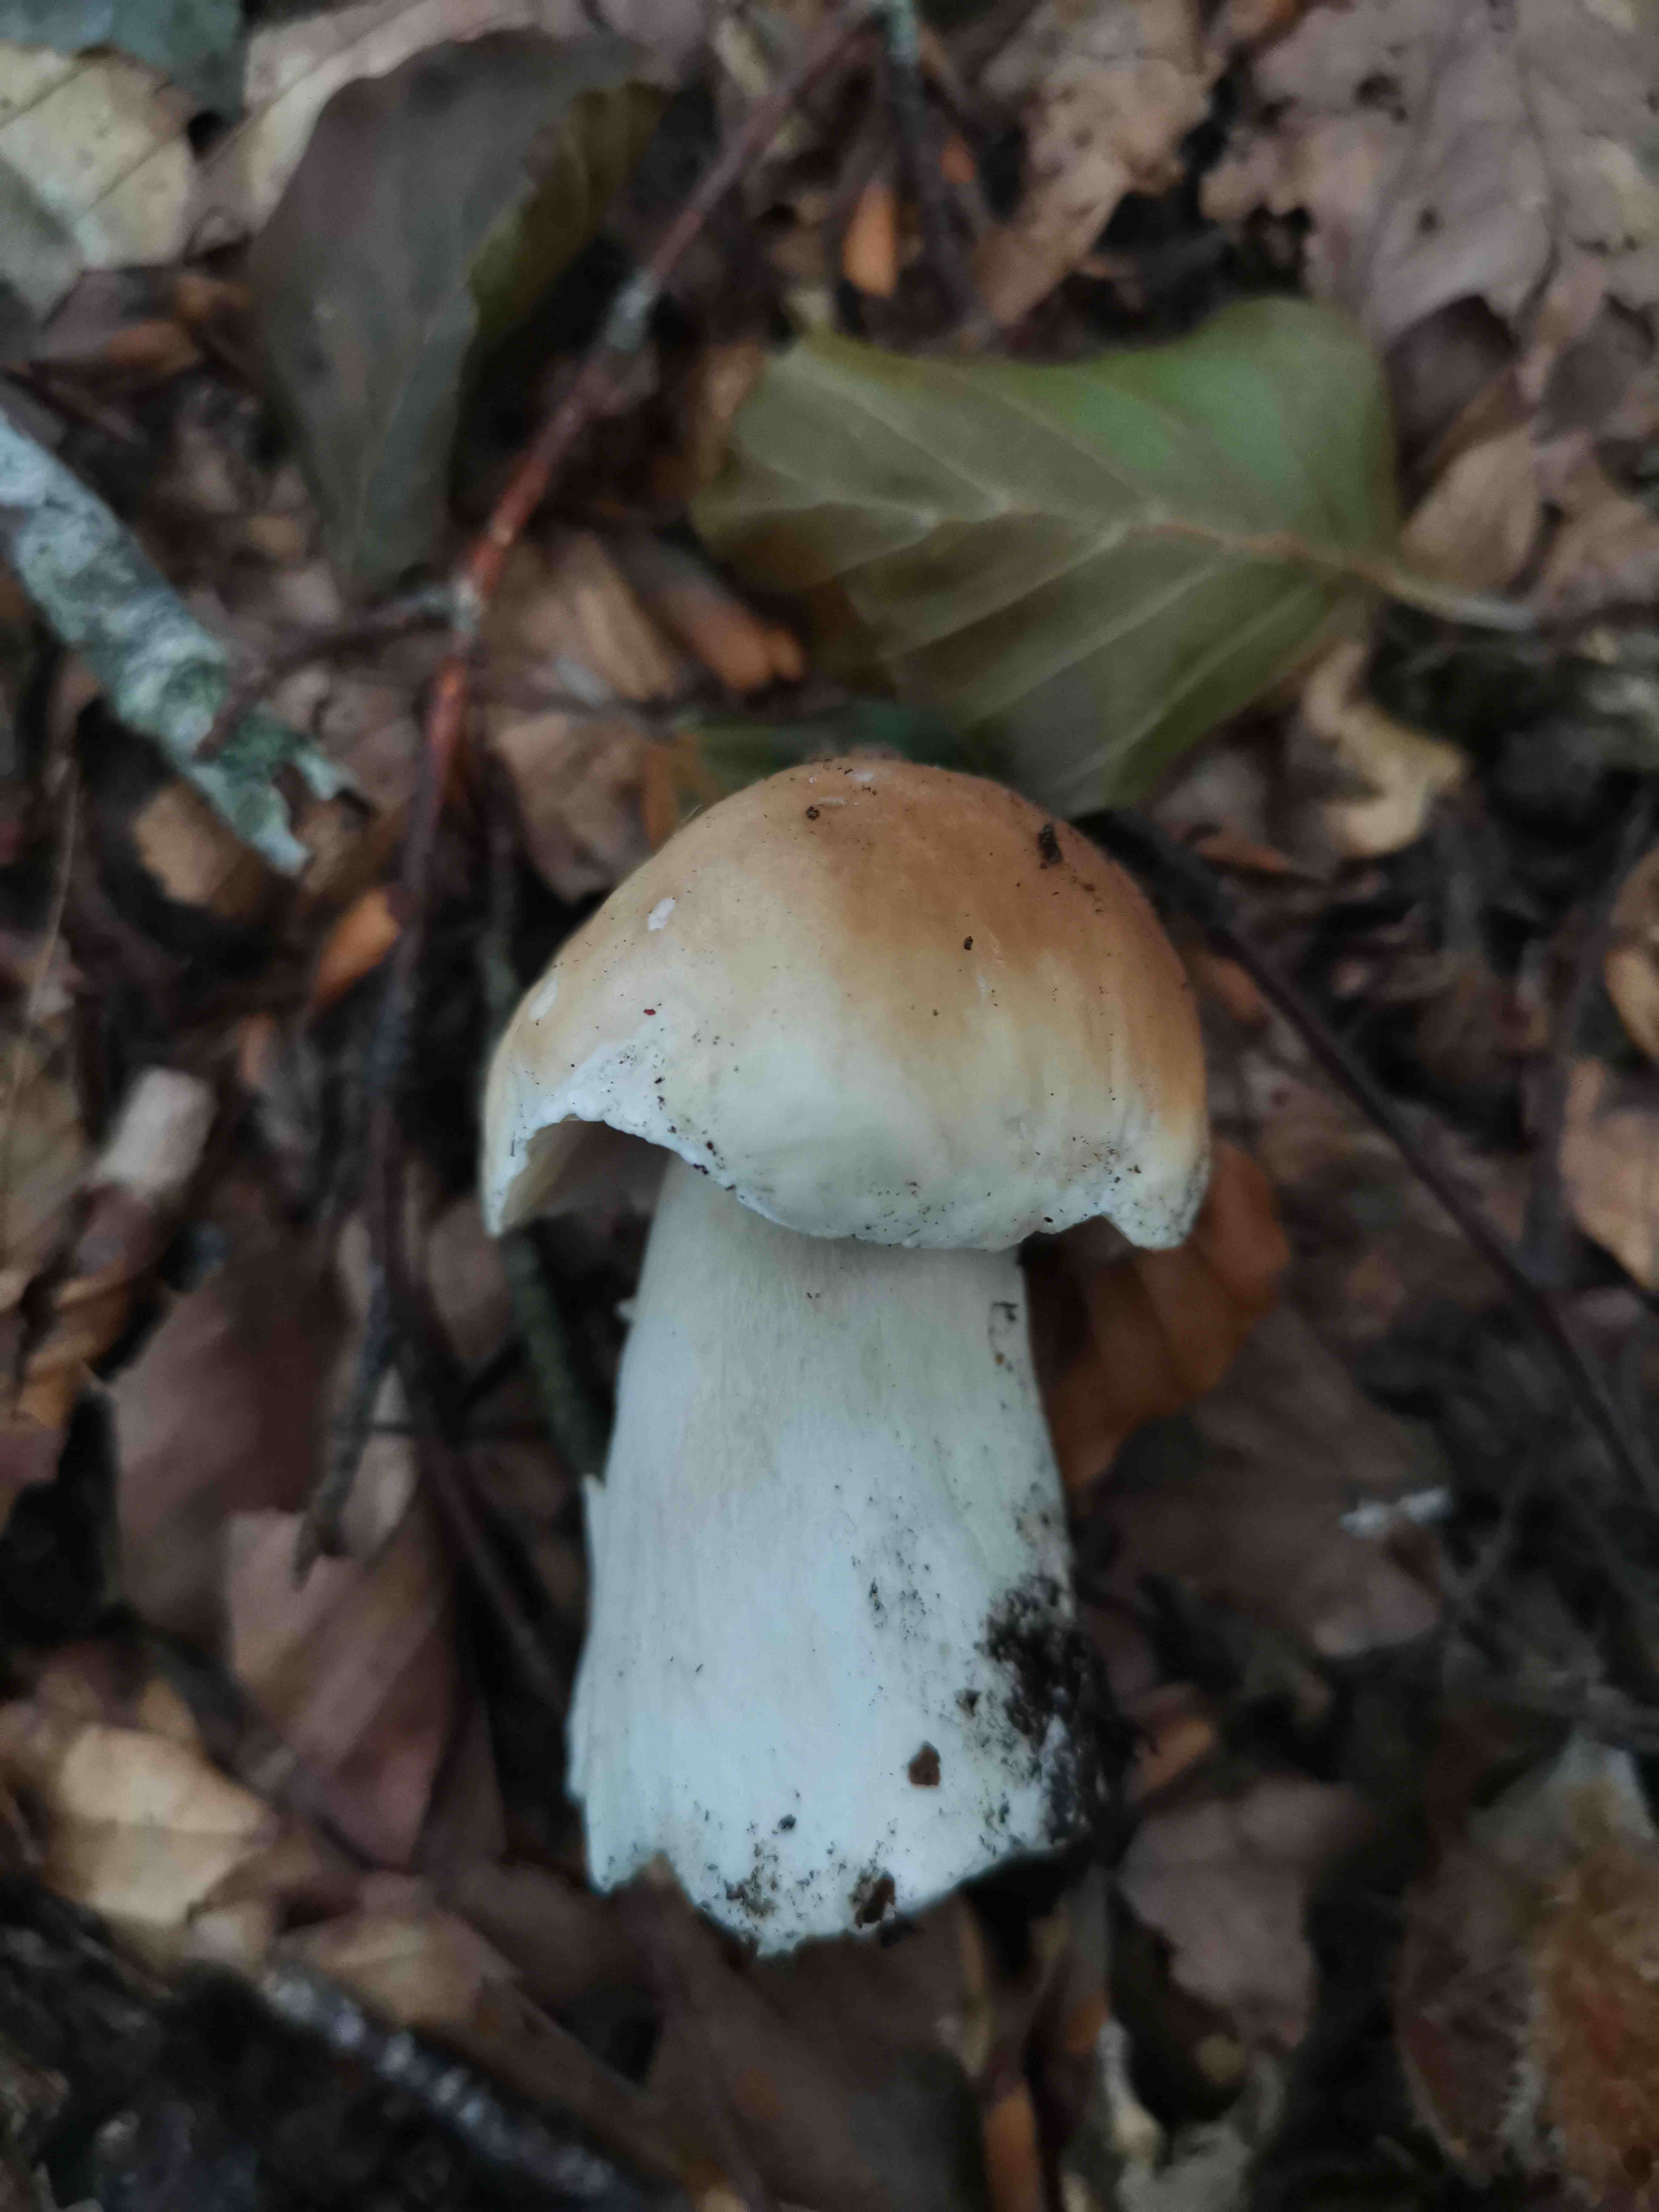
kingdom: Fungi
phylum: Basidiomycota
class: Agaricomycetes
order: Boletales
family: Boletaceae
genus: Boletus
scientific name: Boletus edulis
